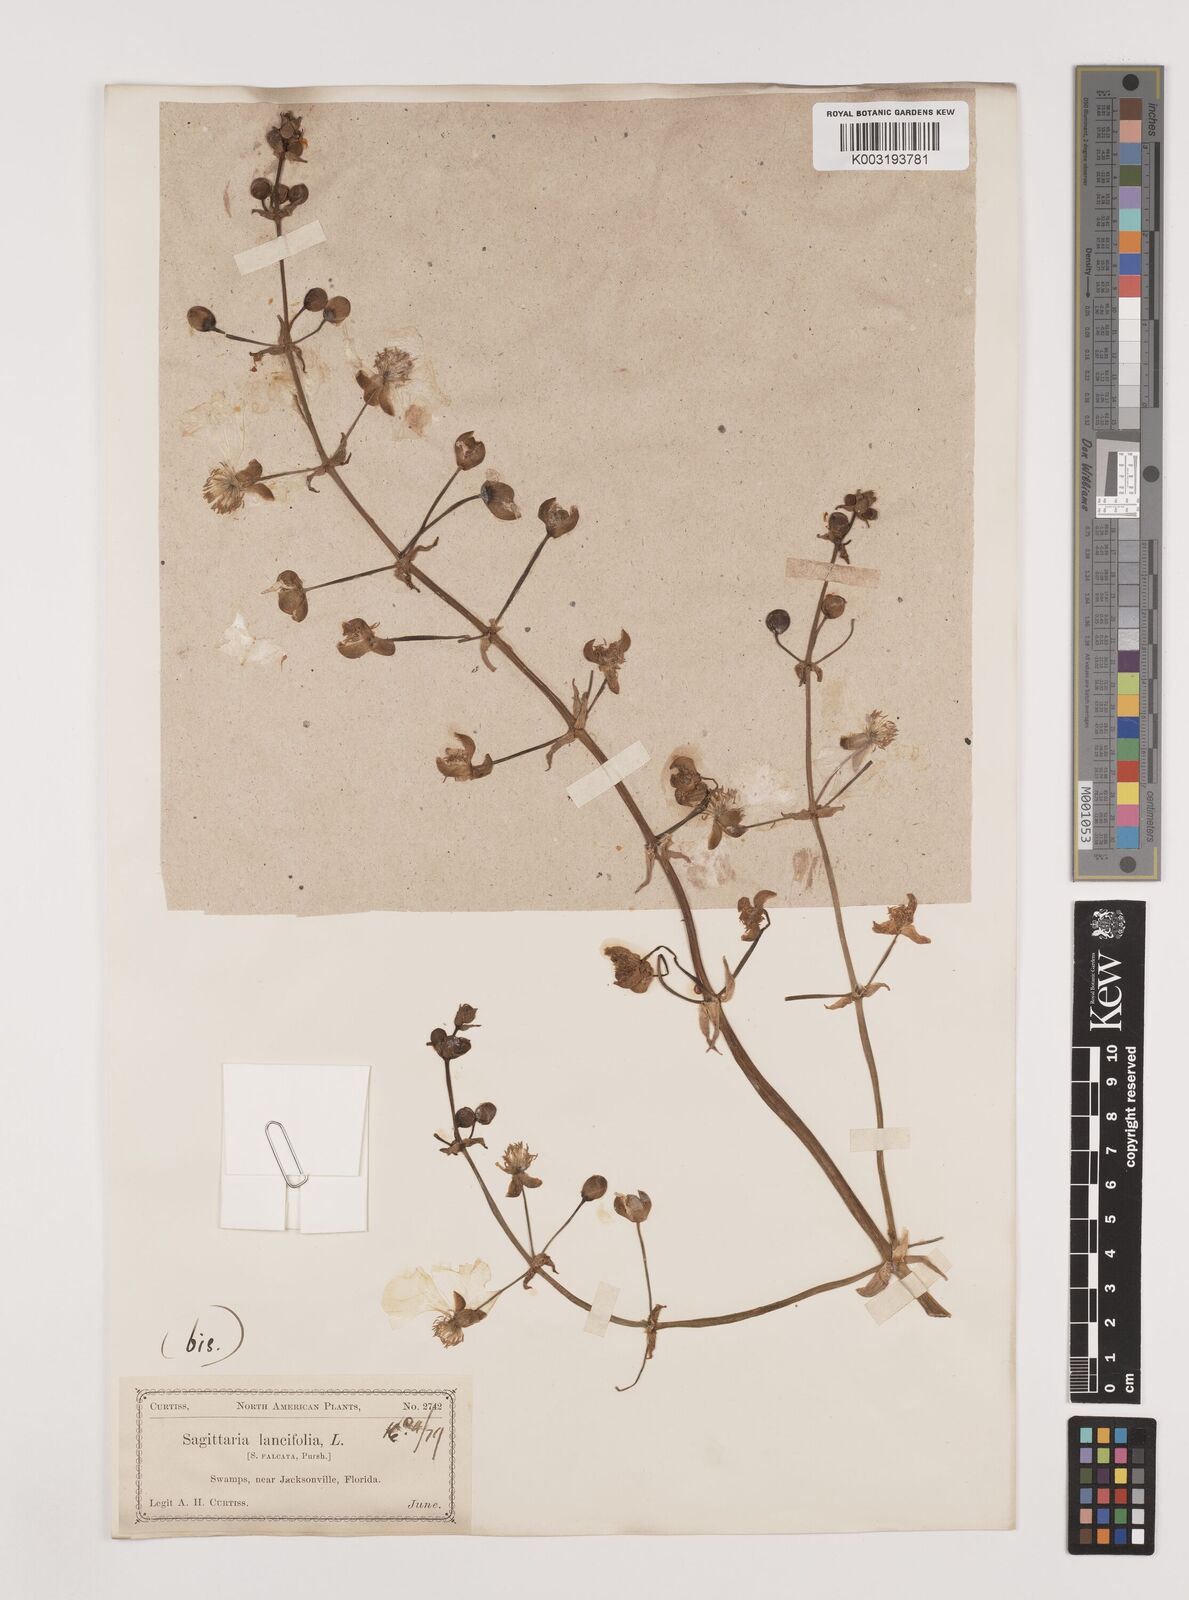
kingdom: Plantae
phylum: Tracheophyta
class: Liliopsida
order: Alismatales
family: Alismataceae
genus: Sagittaria
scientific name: Sagittaria lancifolia
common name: Lance-leaf arrowhead
